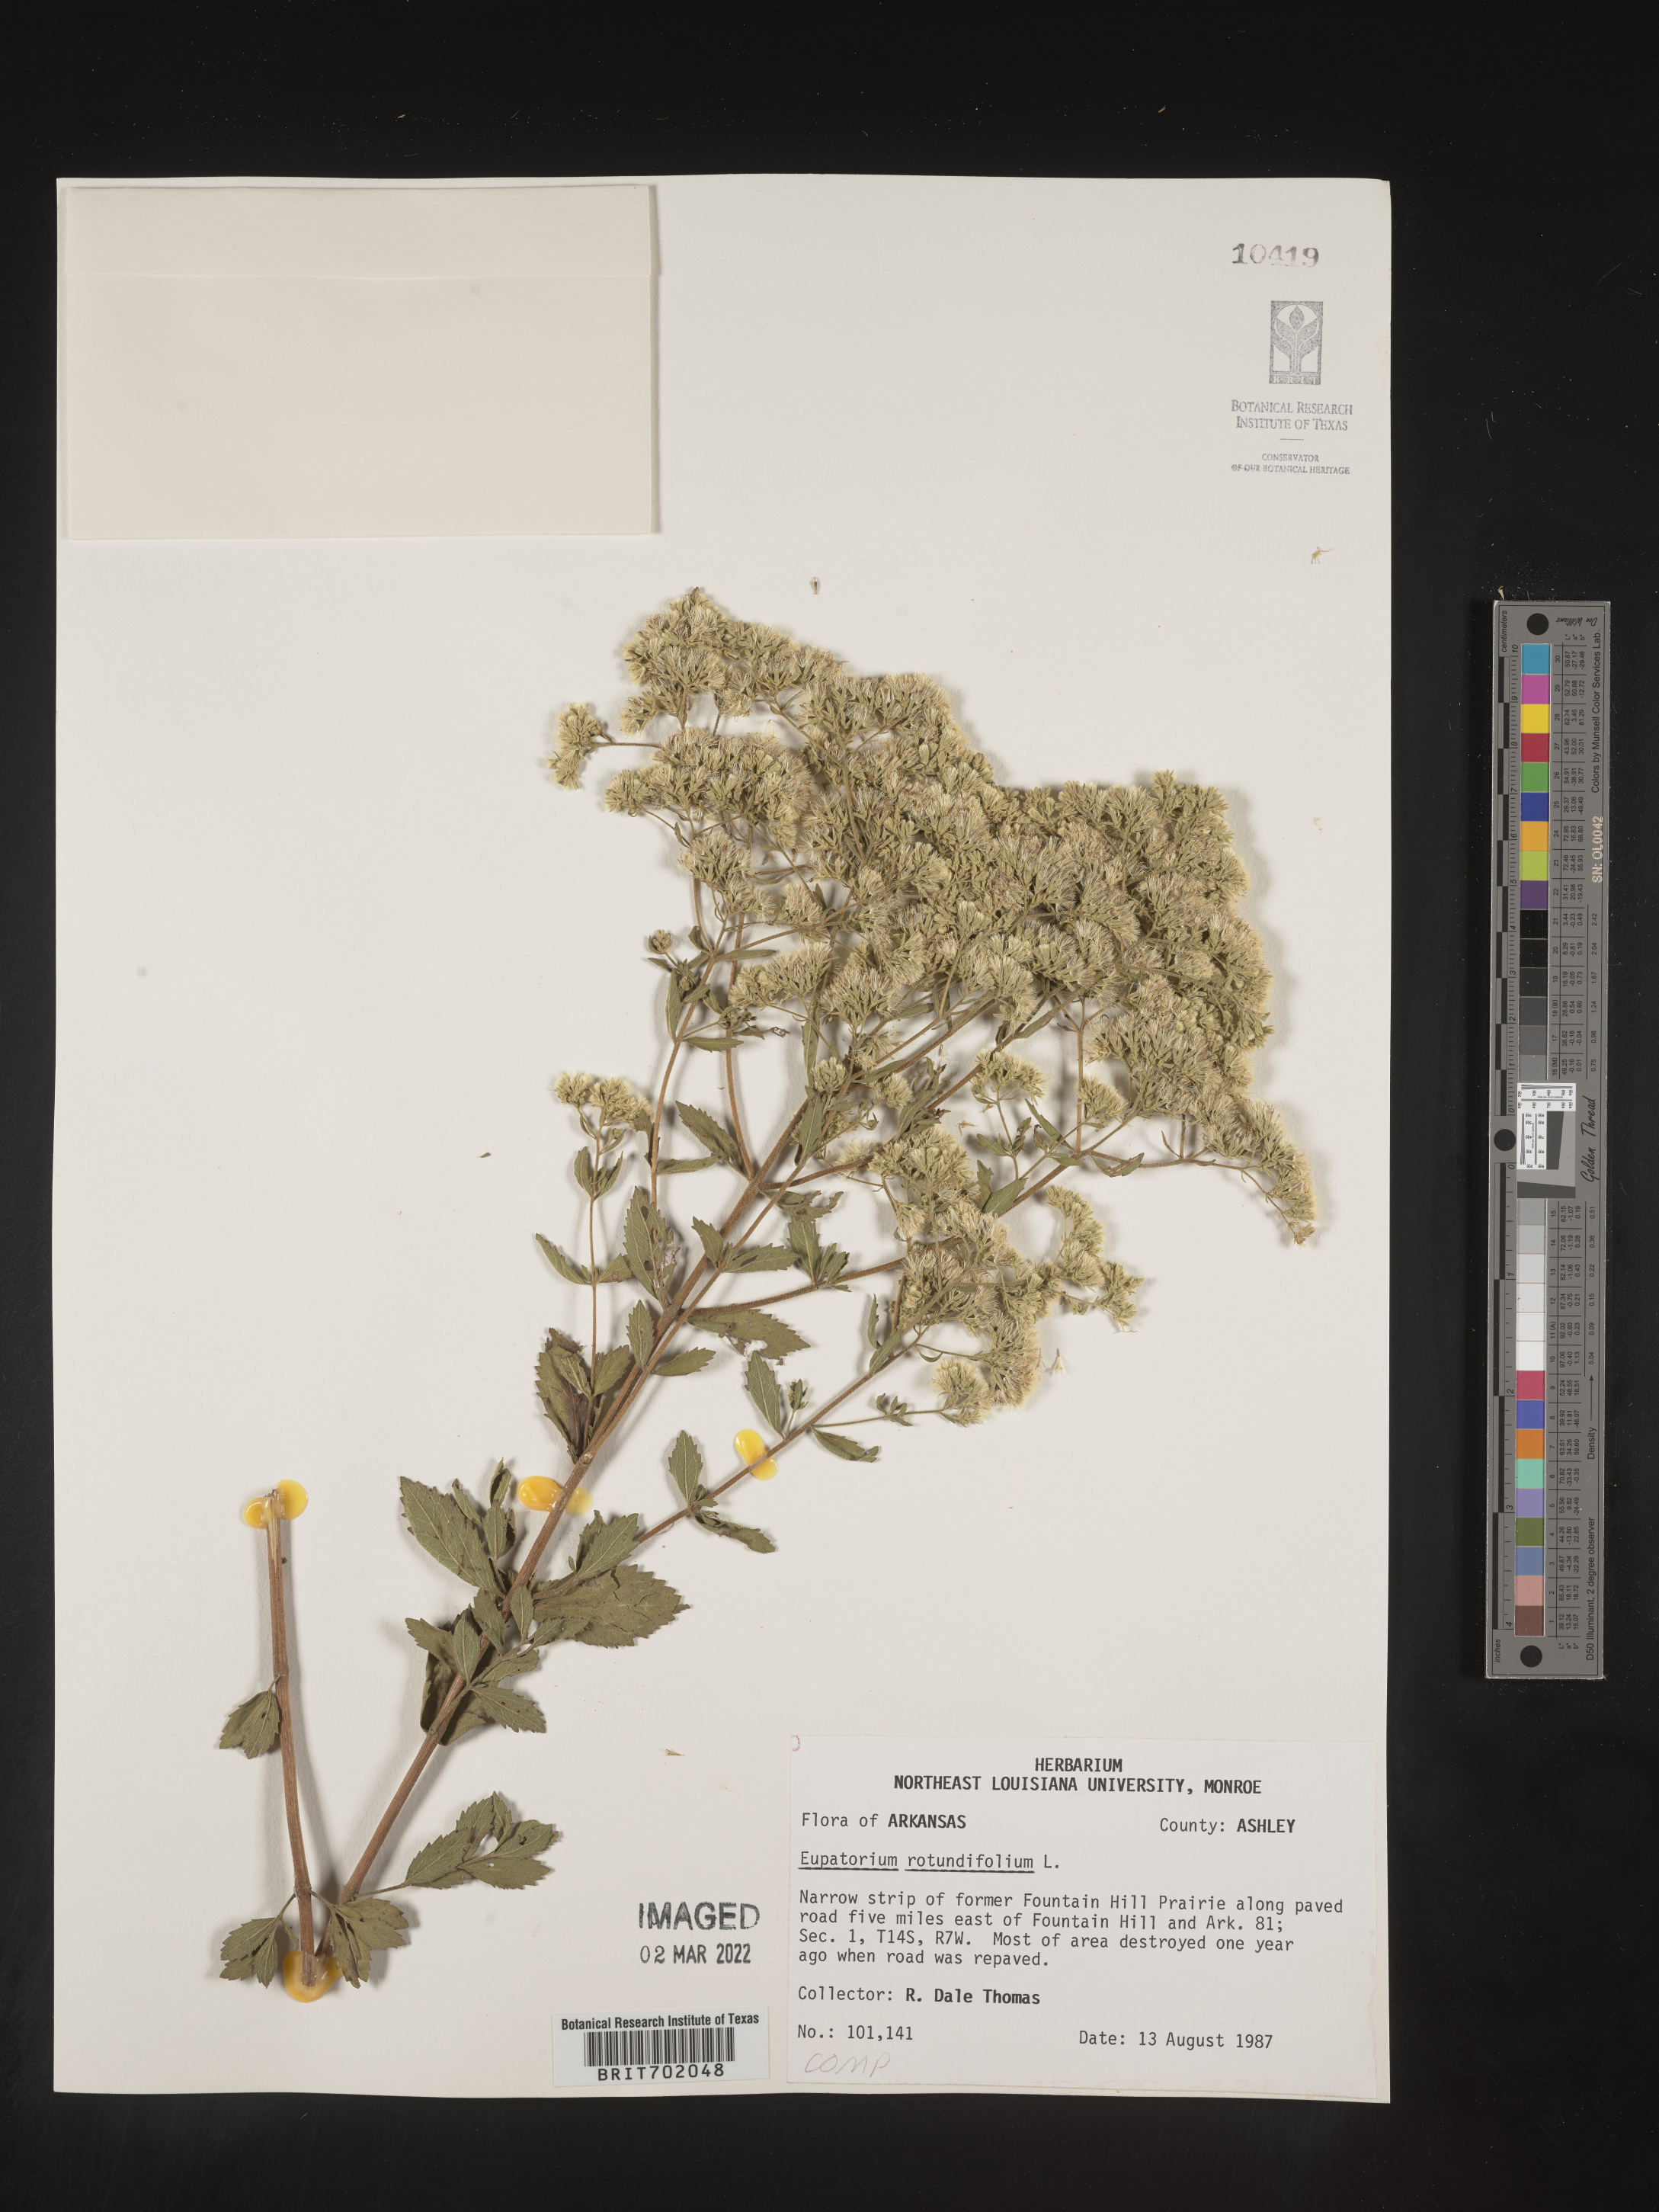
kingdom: Plantae
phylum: Tracheophyta
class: Magnoliopsida
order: Asterales
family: Asteraceae
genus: Eupatorium
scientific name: Eupatorium rotundifolium
